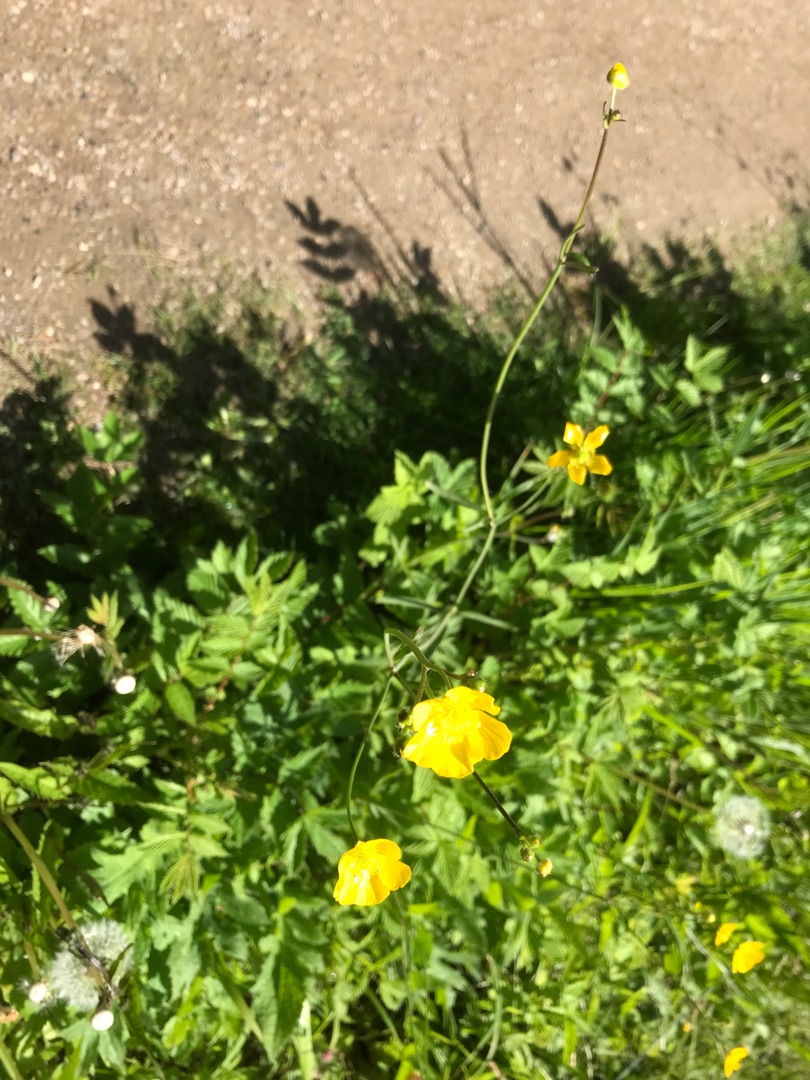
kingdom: Plantae
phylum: Tracheophyta
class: Magnoliopsida
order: Ranunculales
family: Ranunculaceae
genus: Ranunculus
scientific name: Ranunculus acris
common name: Bidende ranunkel
